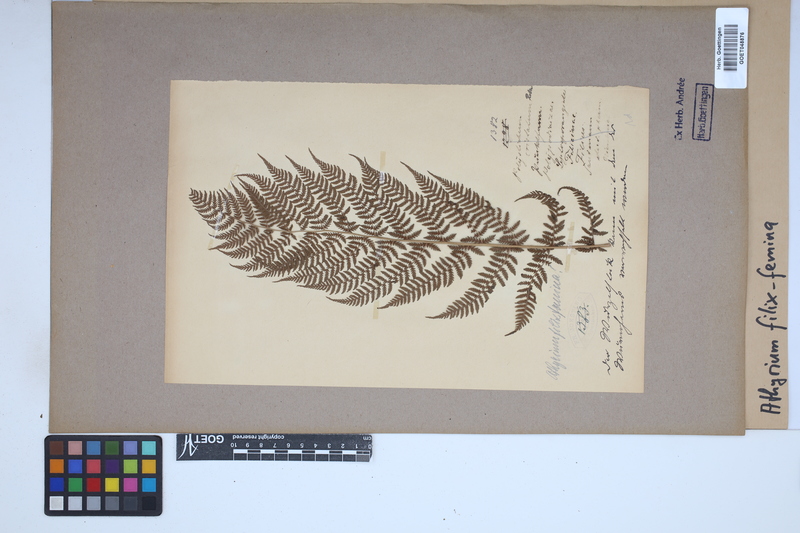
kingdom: Plantae
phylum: Tracheophyta
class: Polypodiopsida
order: Polypodiales
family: Athyriaceae
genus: Athyrium
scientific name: Athyrium filix-femina
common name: Lady fern
